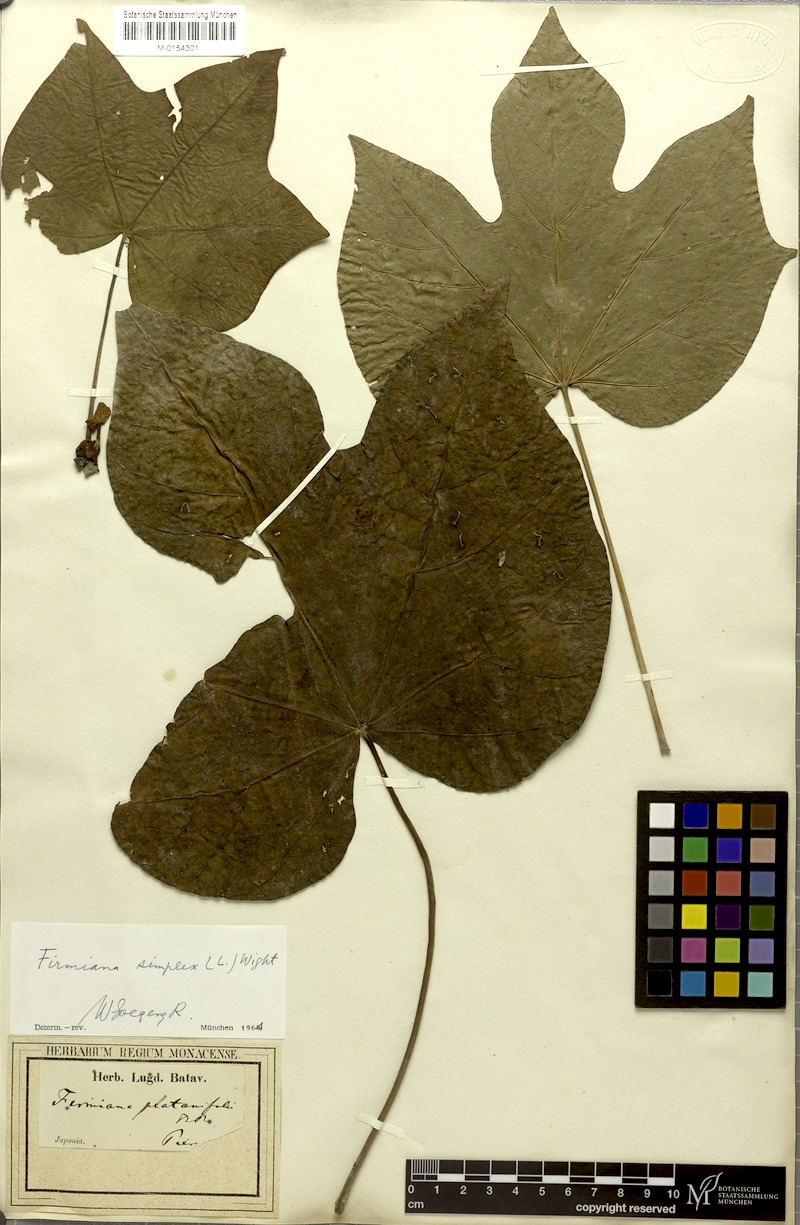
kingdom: Plantae
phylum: Tracheophyta
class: Magnoliopsida
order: Malvales
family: Malvaceae
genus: Firmiana
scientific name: Firmiana simplex
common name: Chinese parasoltree
